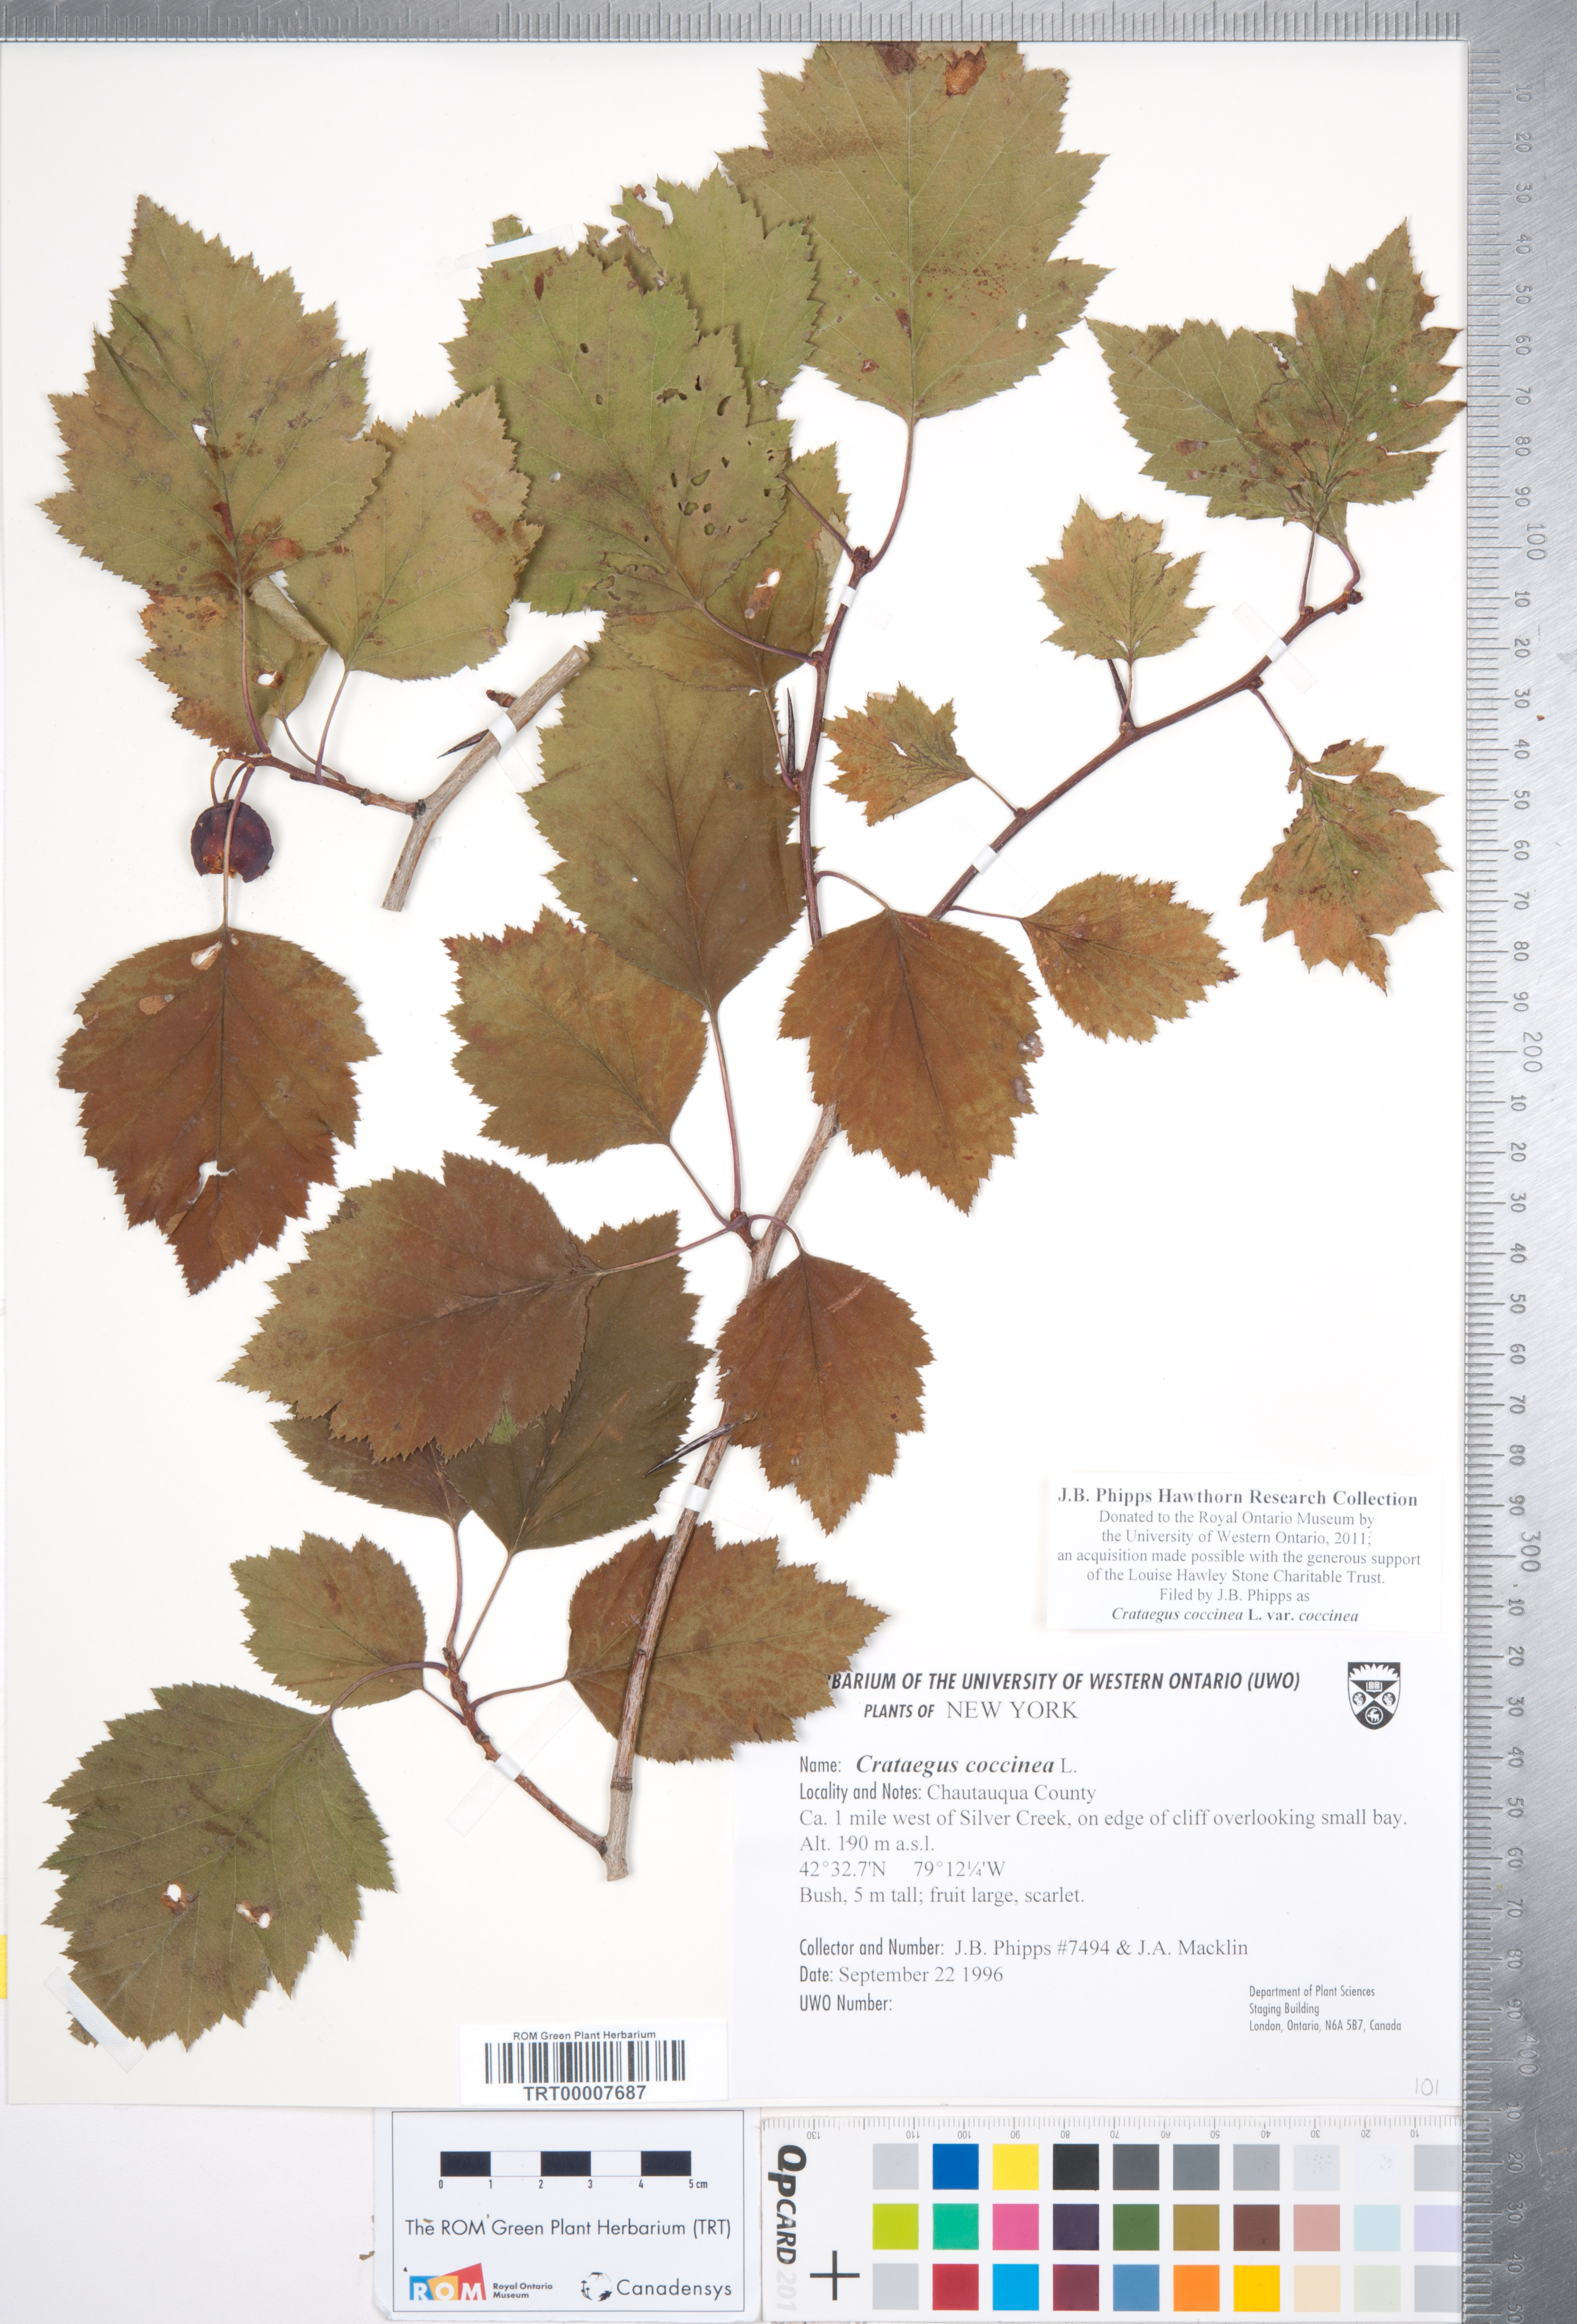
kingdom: Plantae
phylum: Tracheophyta
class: Magnoliopsida
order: Rosales
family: Rosaceae
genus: Crataegus
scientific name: Crataegus coccinea
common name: Scarlet hawthorn
